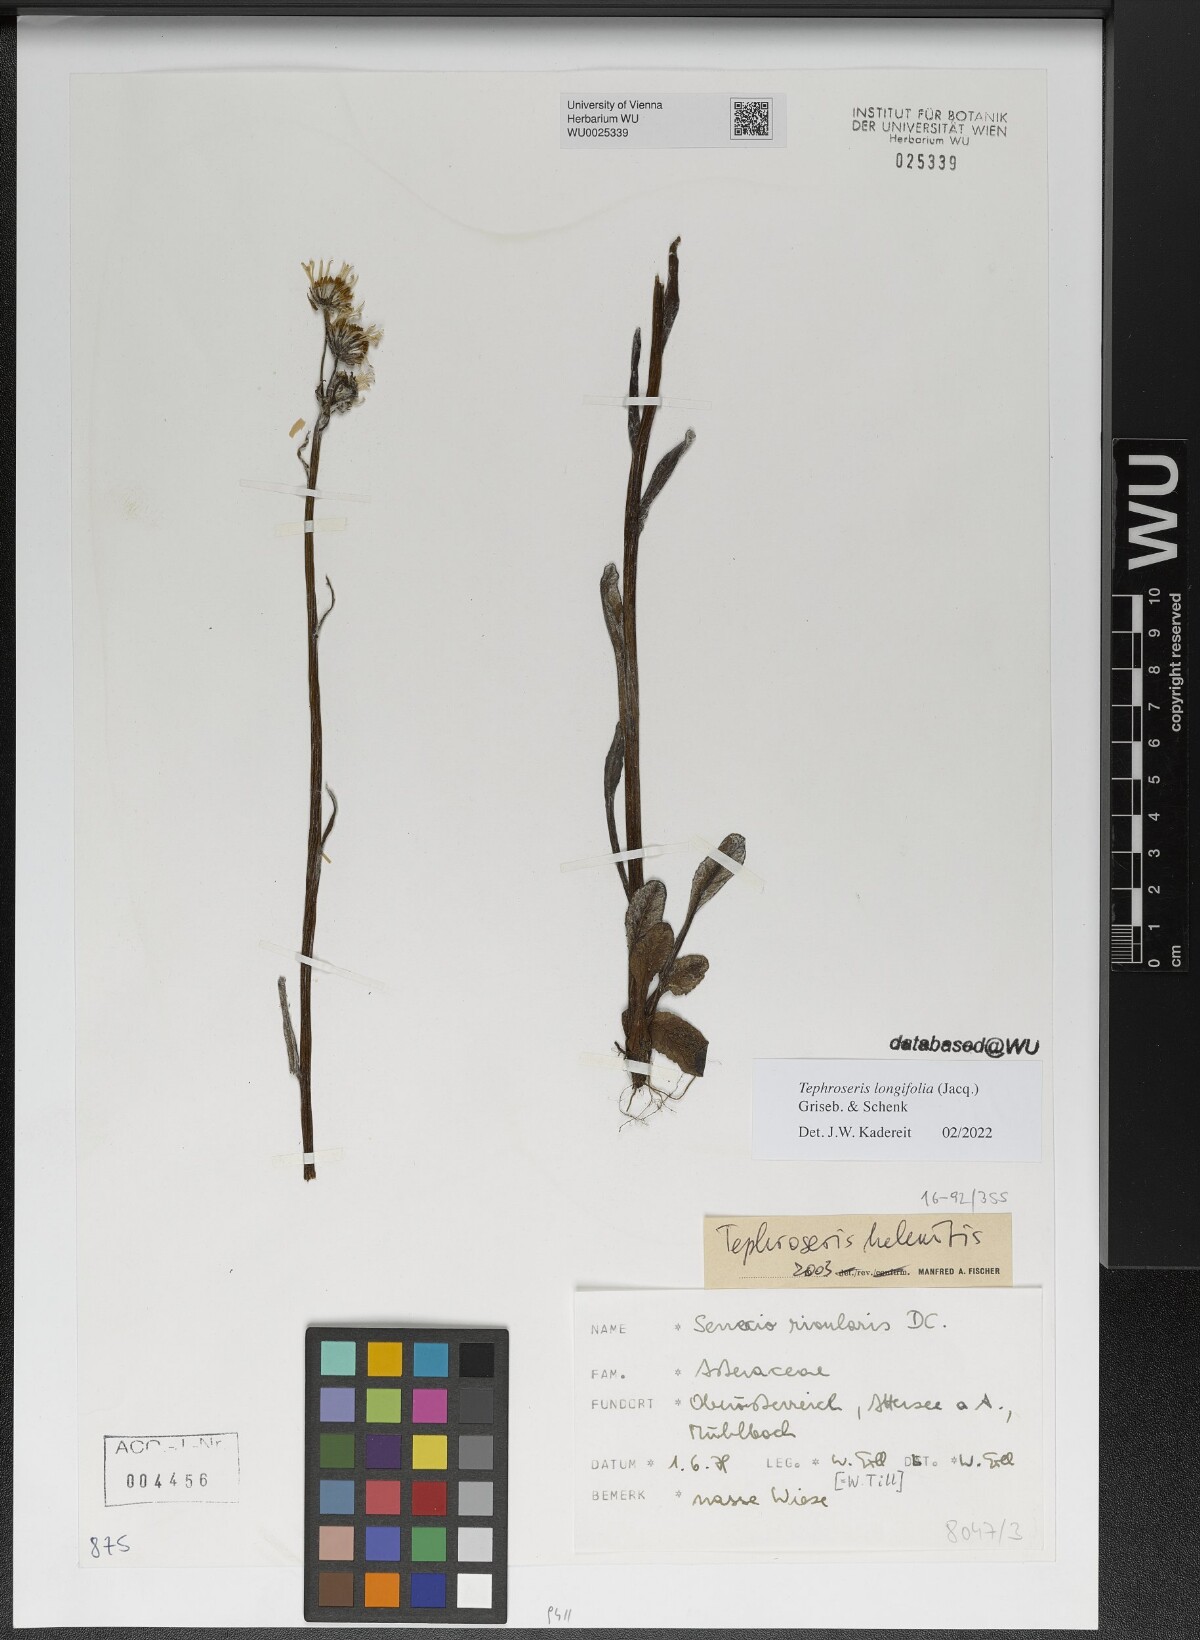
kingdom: Plantae
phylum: Tracheophyta
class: Magnoliopsida
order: Asterales
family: Asteraceae
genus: Tephroseris
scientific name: Tephroseris longifolia
